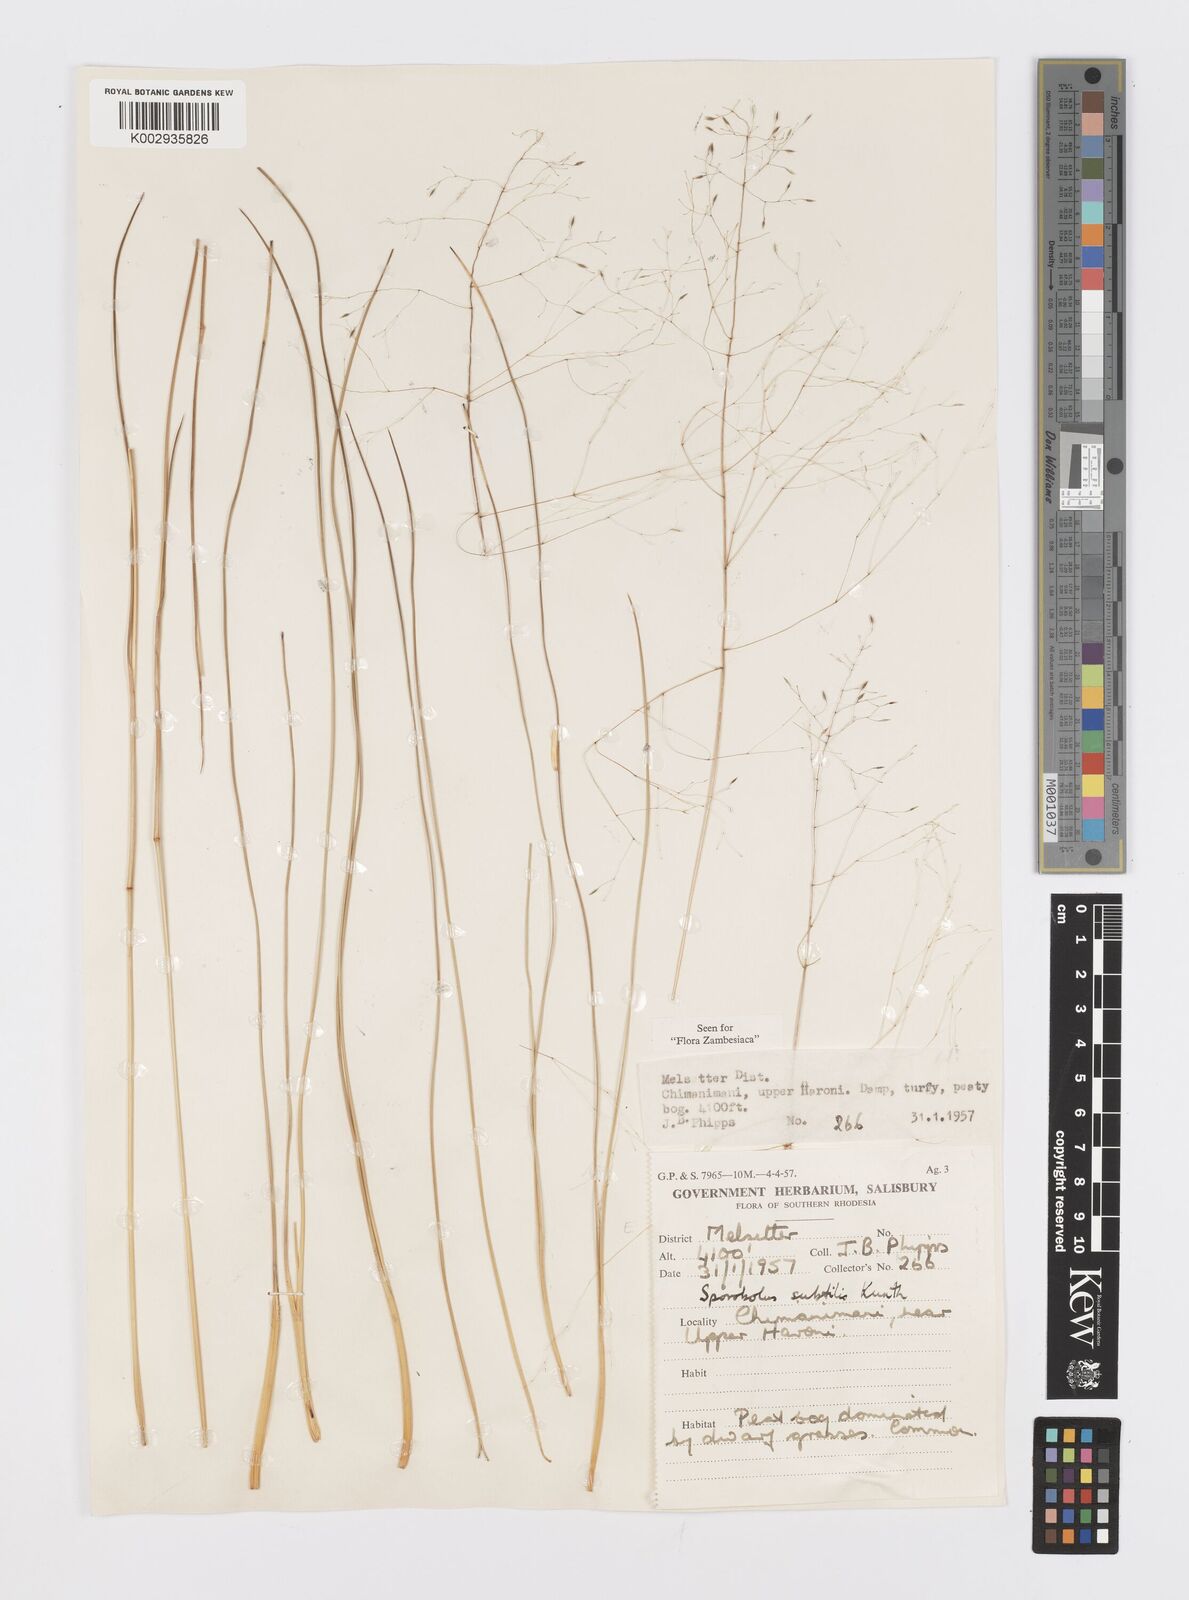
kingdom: Plantae
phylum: Tracheophyta
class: Liliopsida
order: Poales
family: Poaceae
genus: Sporobolus
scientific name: Sporobolus subtilis
